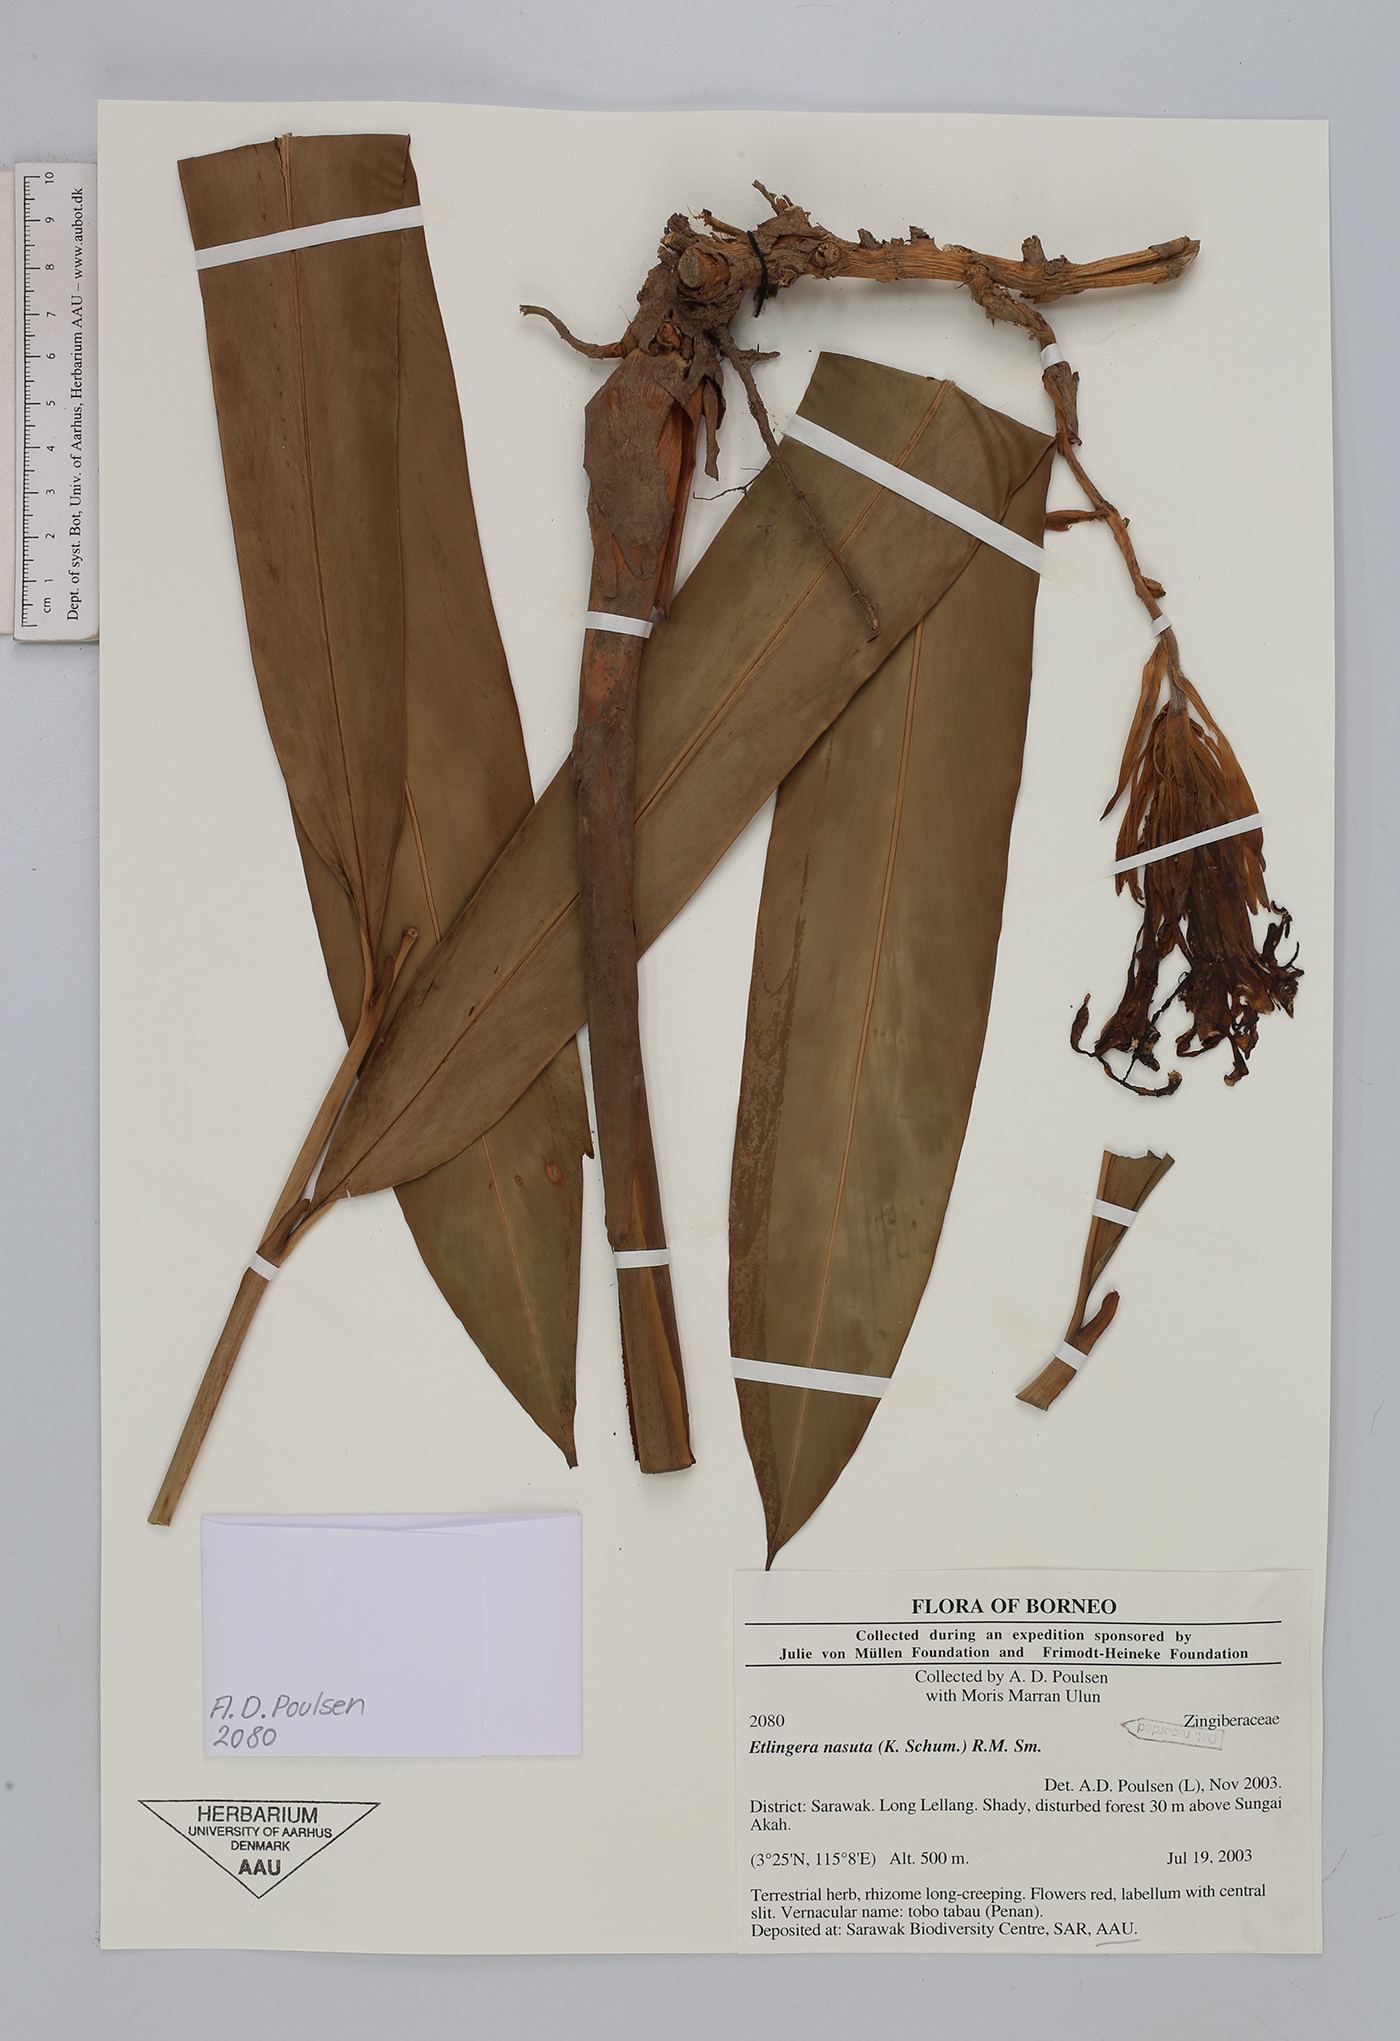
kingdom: Plantae
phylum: Tracheophyta
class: Liliopsida
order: Zingiberales
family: Zingiberaceae
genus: Etlingera
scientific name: Etlingera nasuta
